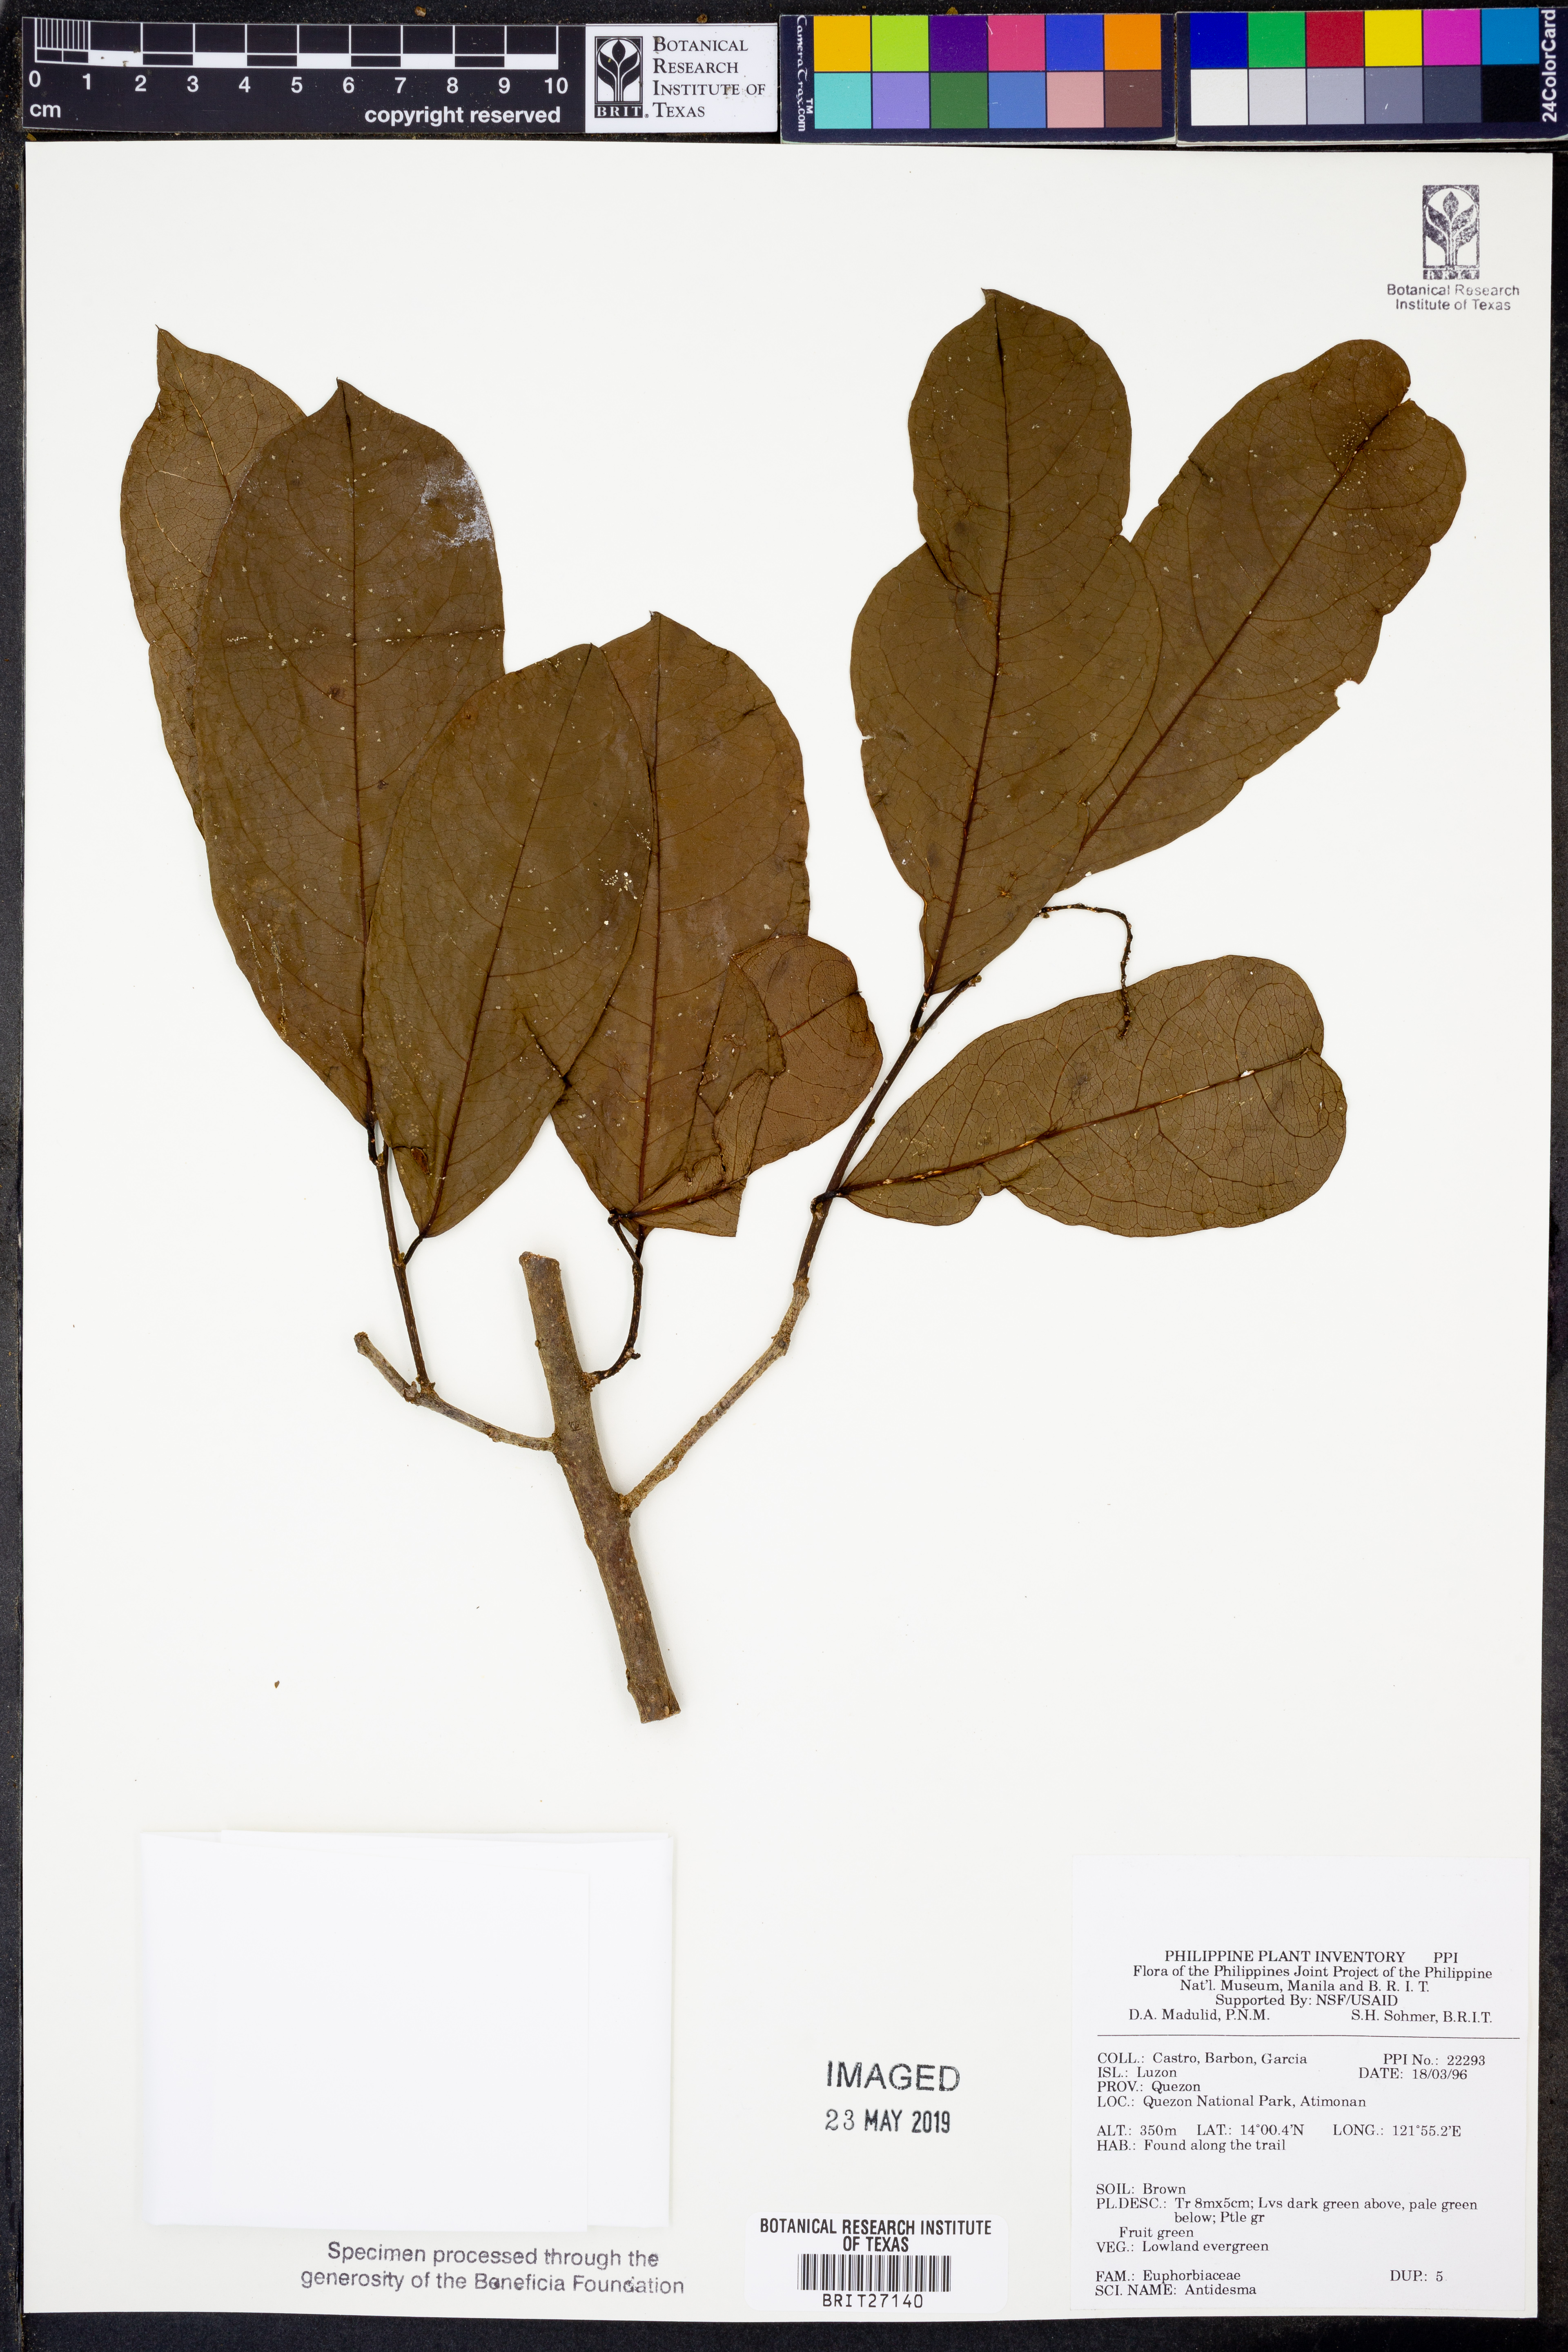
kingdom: Plantae
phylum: Tracheophyta
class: Magnoliopsida
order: Malpighiales
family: Phyllanthaceae
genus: Antidesma
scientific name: Antidesma
